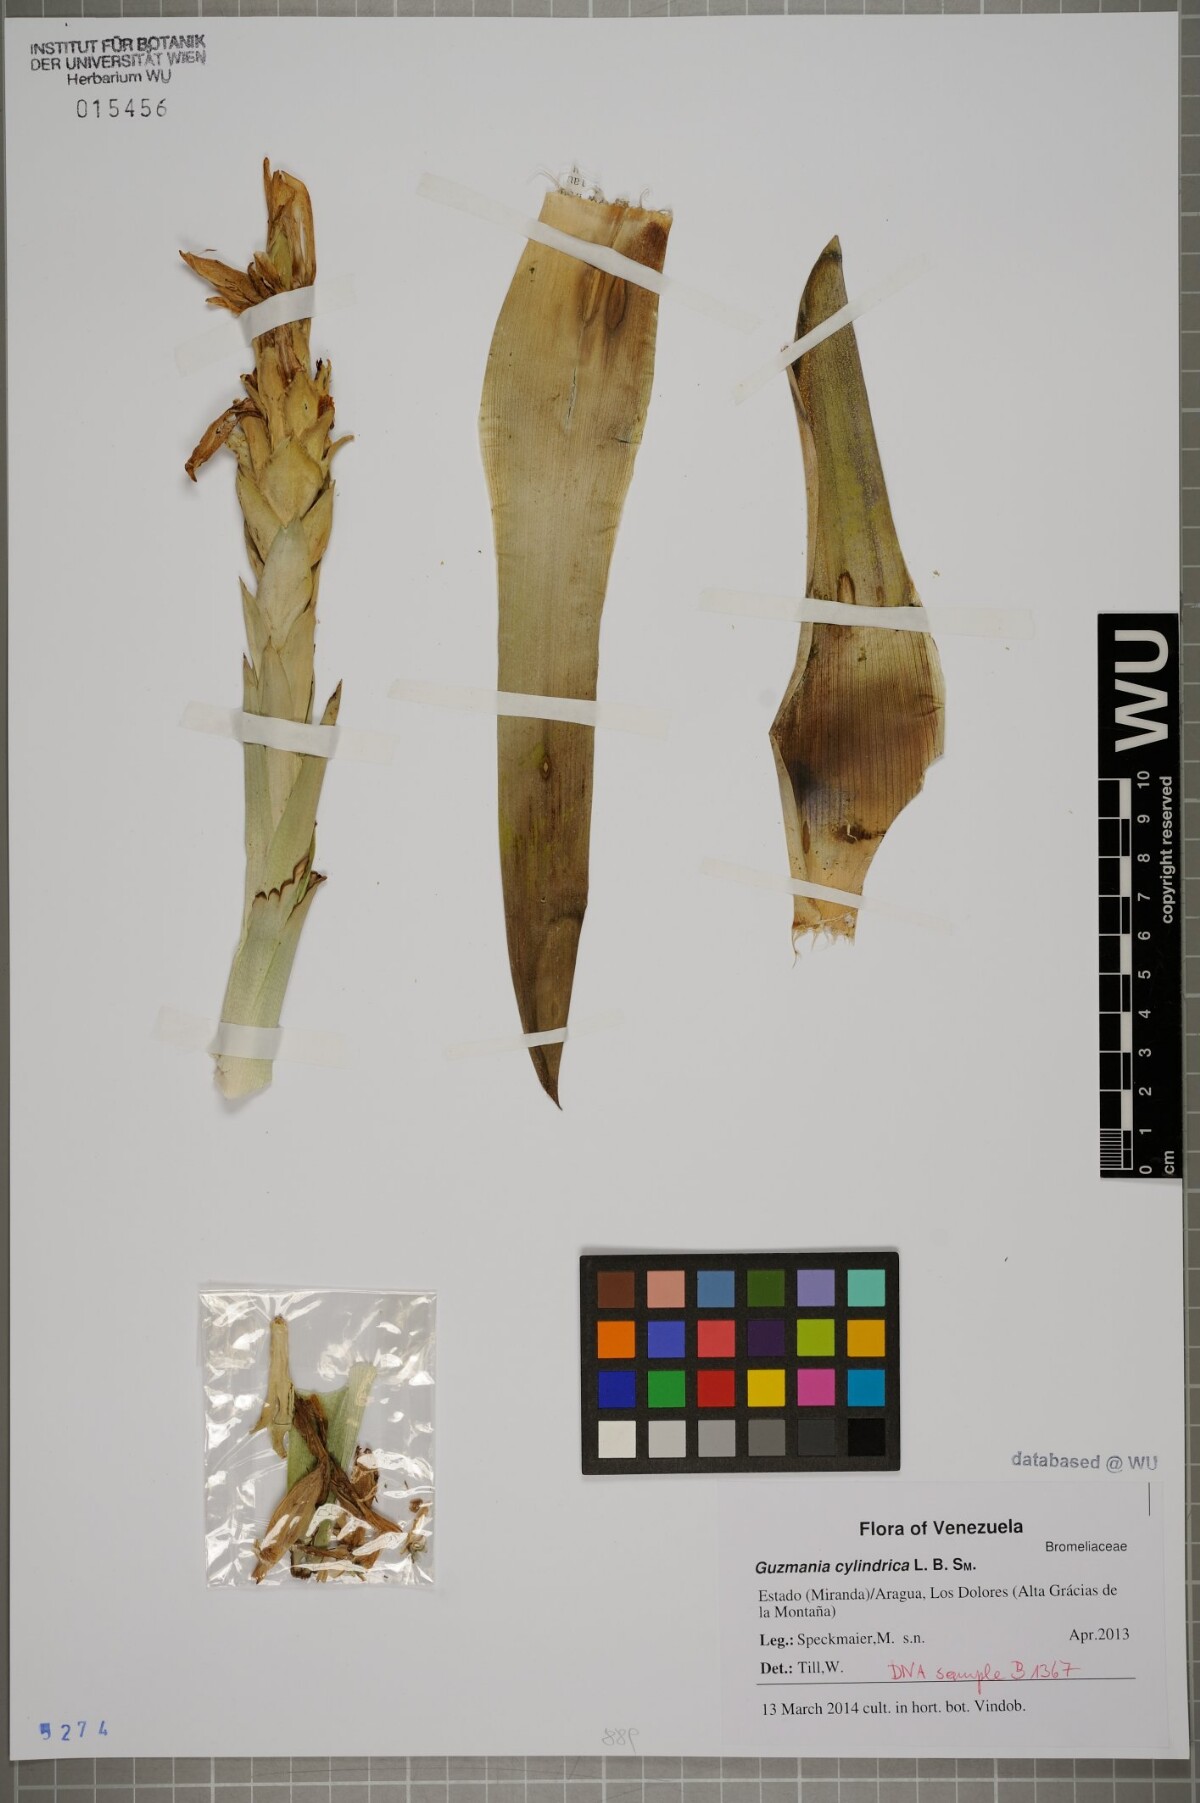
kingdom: Plantae
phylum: Tracheophyta
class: Liliopsida
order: Poales
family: Bromeliaceae
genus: Guzmania
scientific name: Guzmania cylindrica
